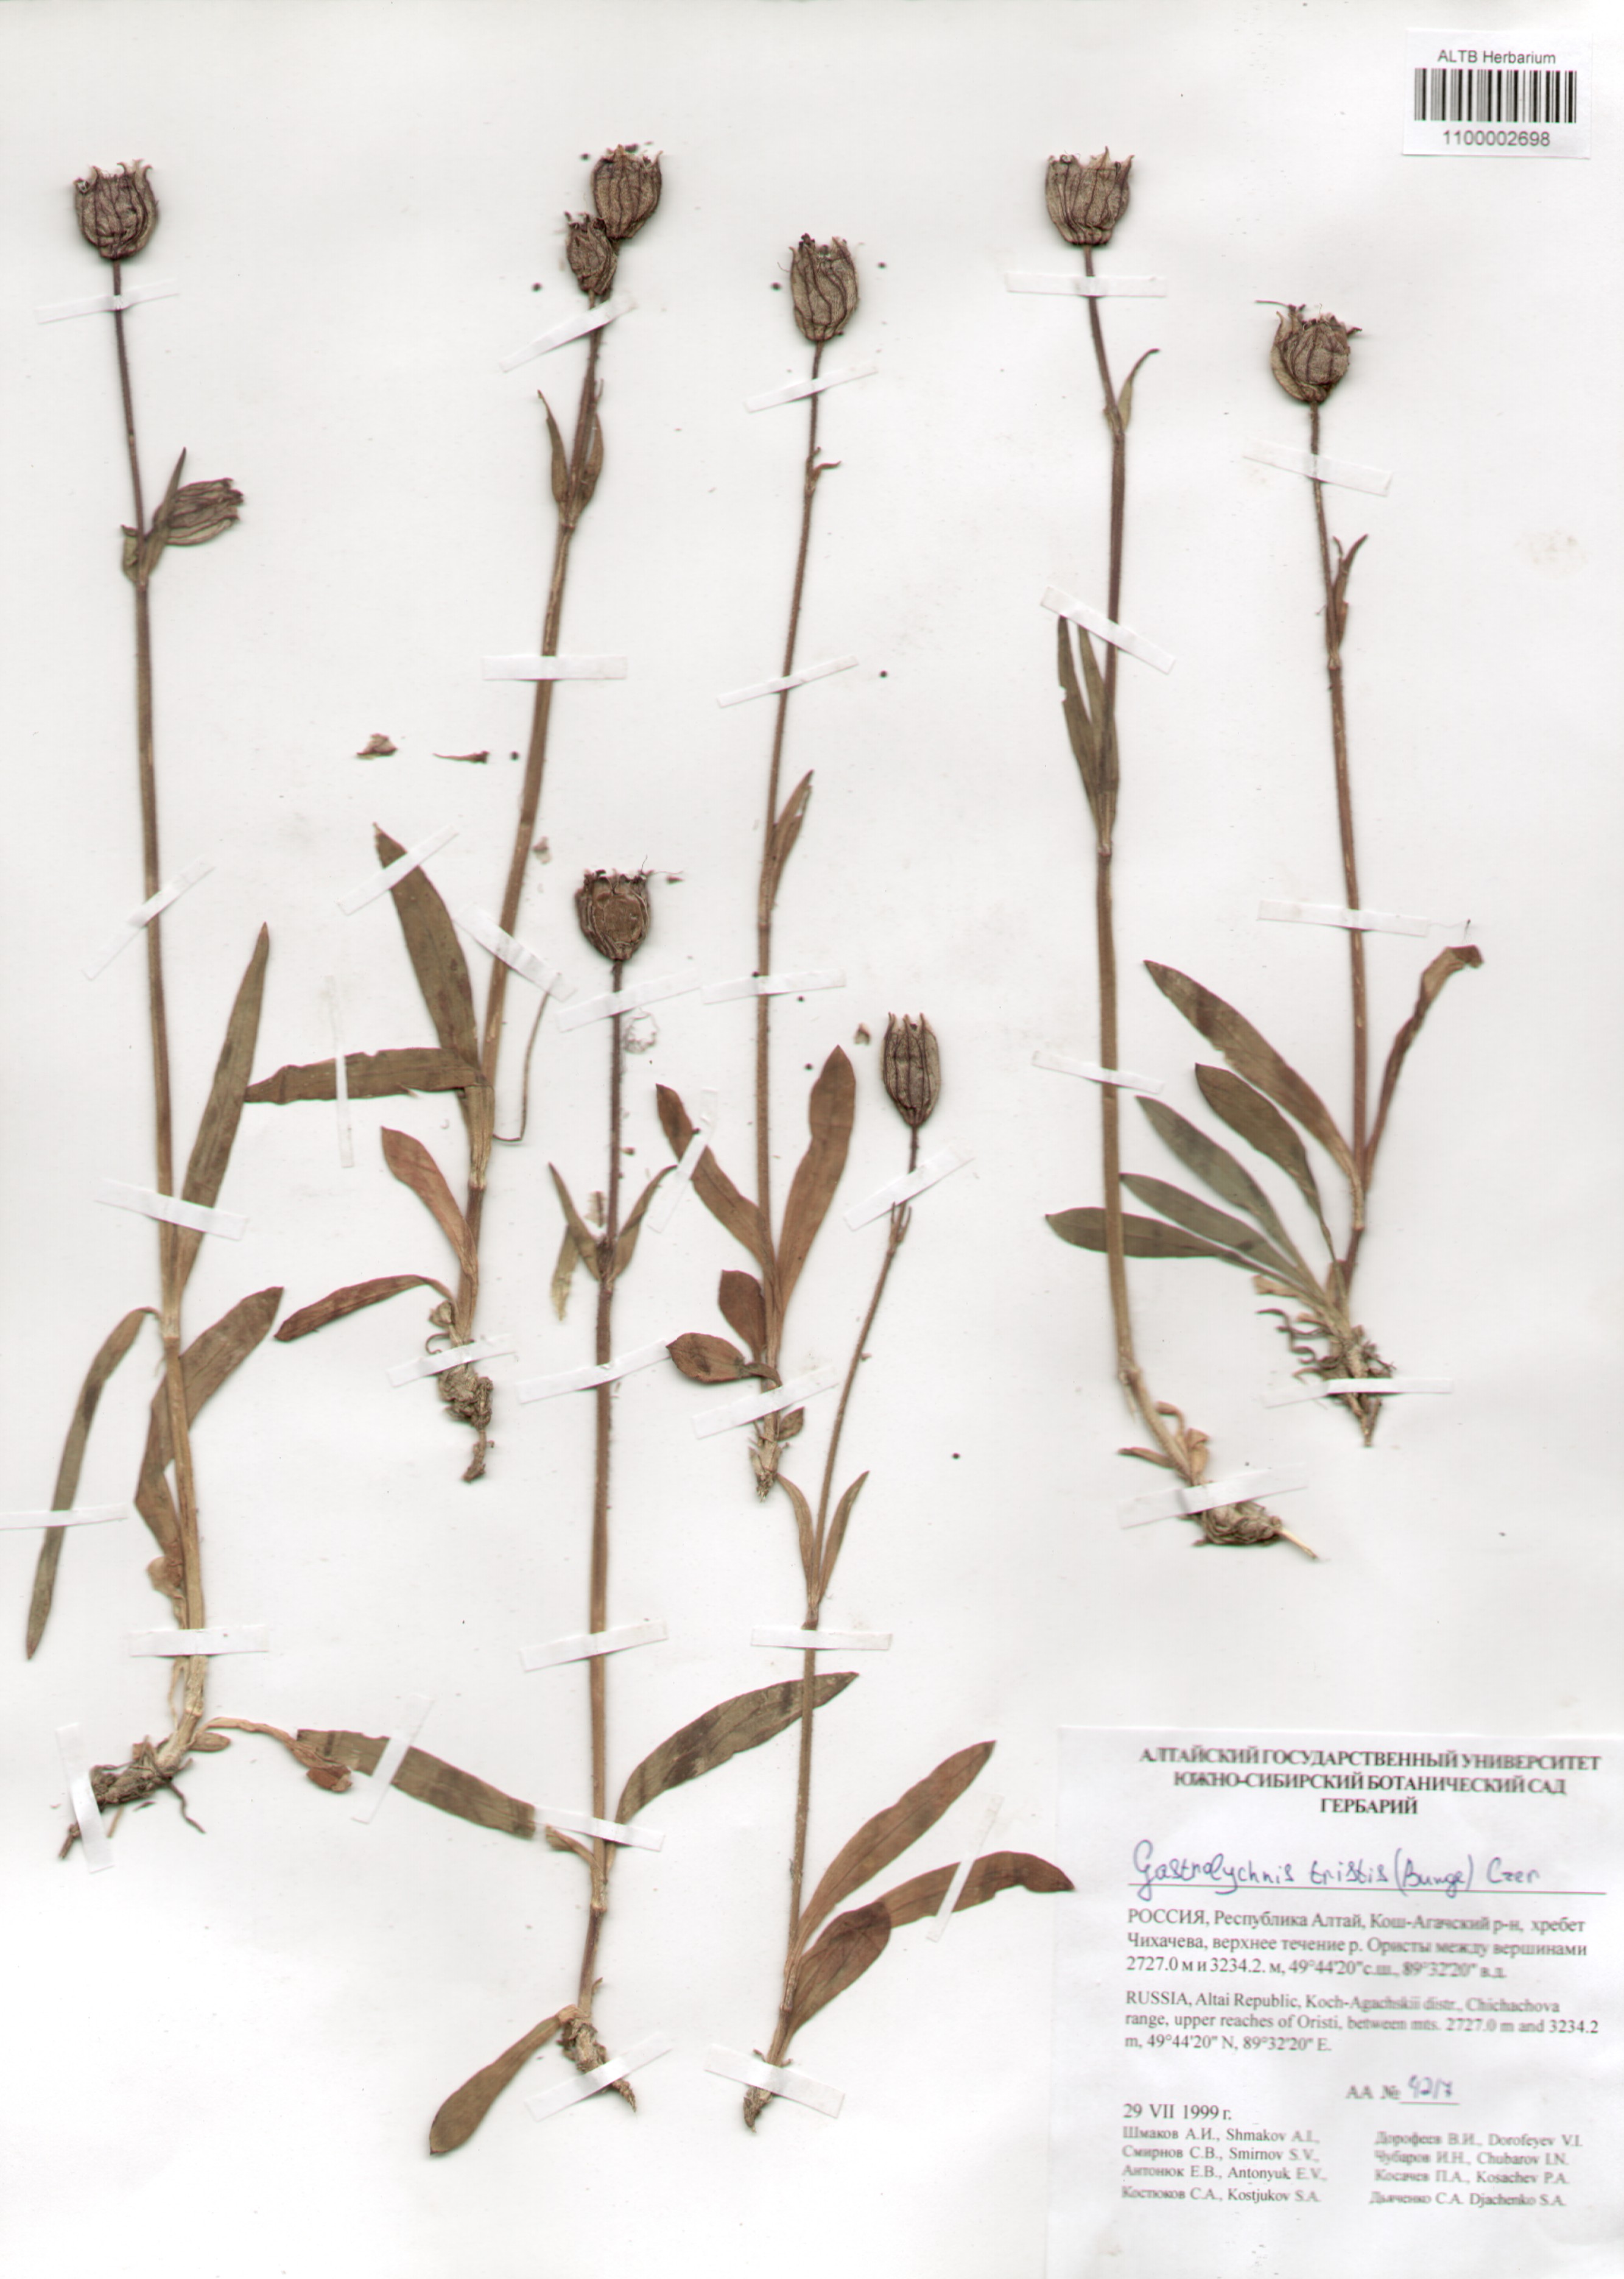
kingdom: Plantae
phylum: Tracheophyta
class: Magnoliopsida
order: Caryophyllales
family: Caryophyllaceae
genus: Silene
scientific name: Silene bungei
